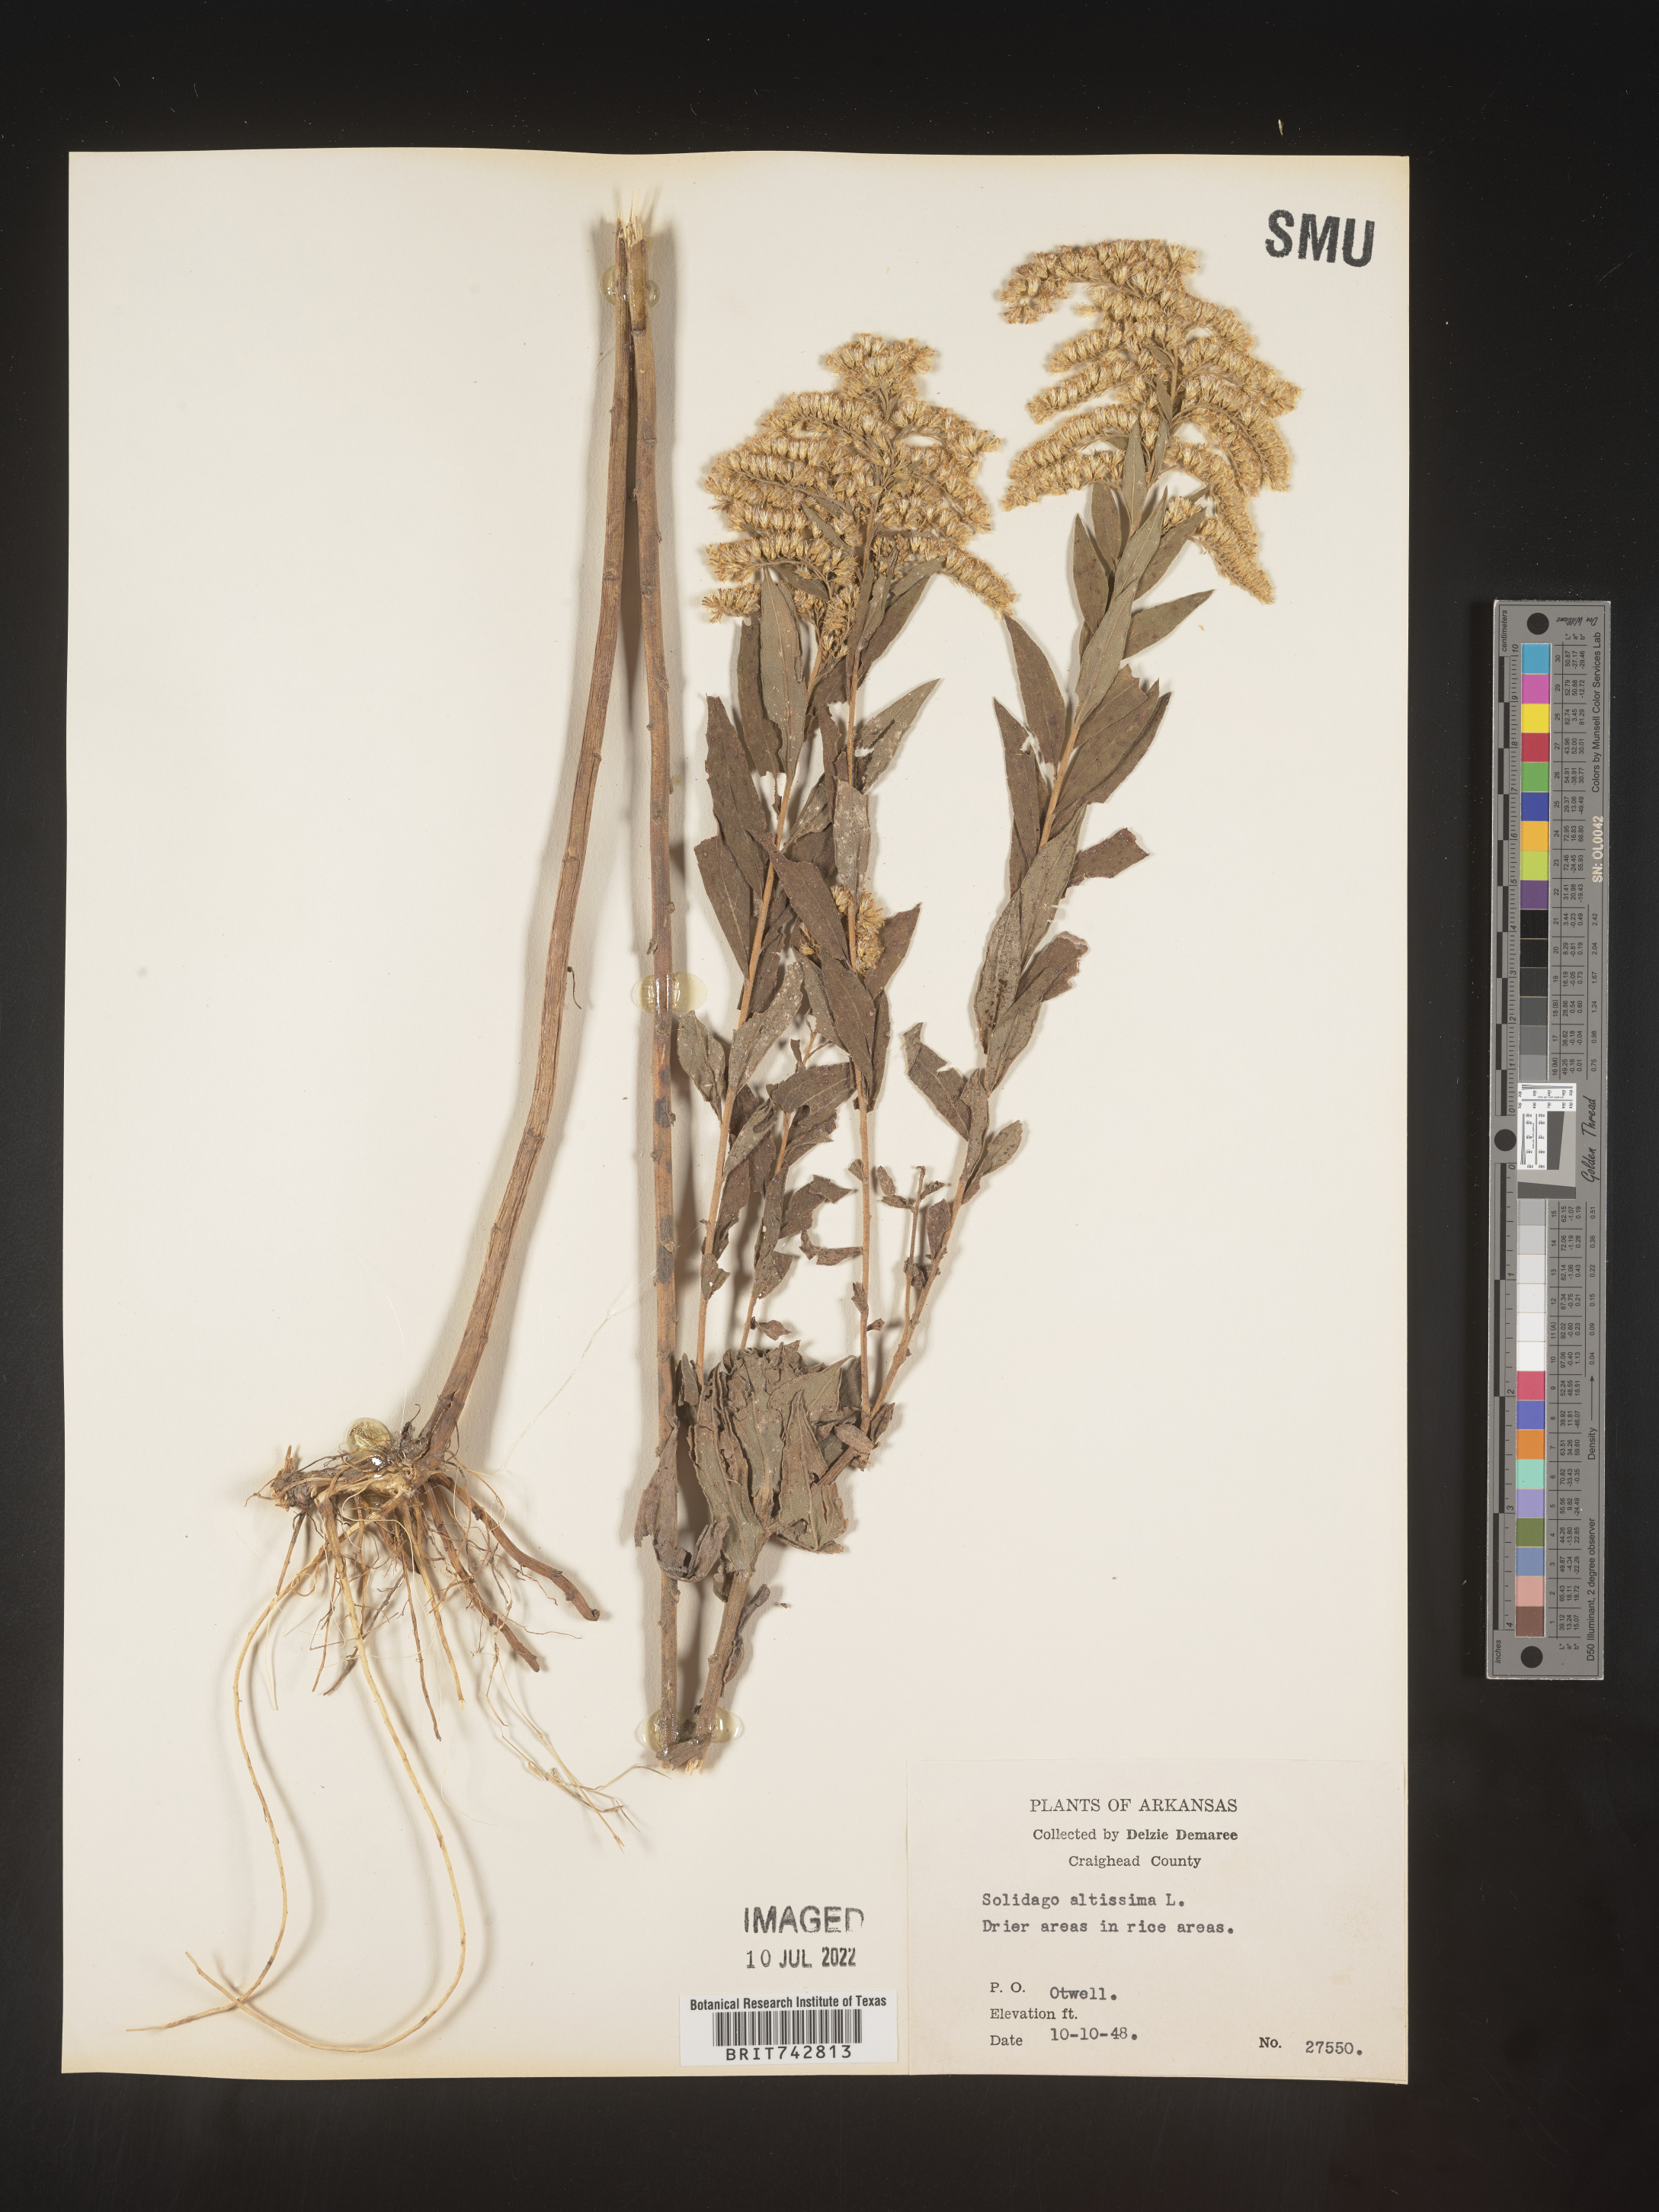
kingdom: Plantae
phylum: Tracheophyta
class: Magnoliopsida
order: Asterales
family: Asteraceae
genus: Solidago
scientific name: Solidago altissima
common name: Late goldenrod
